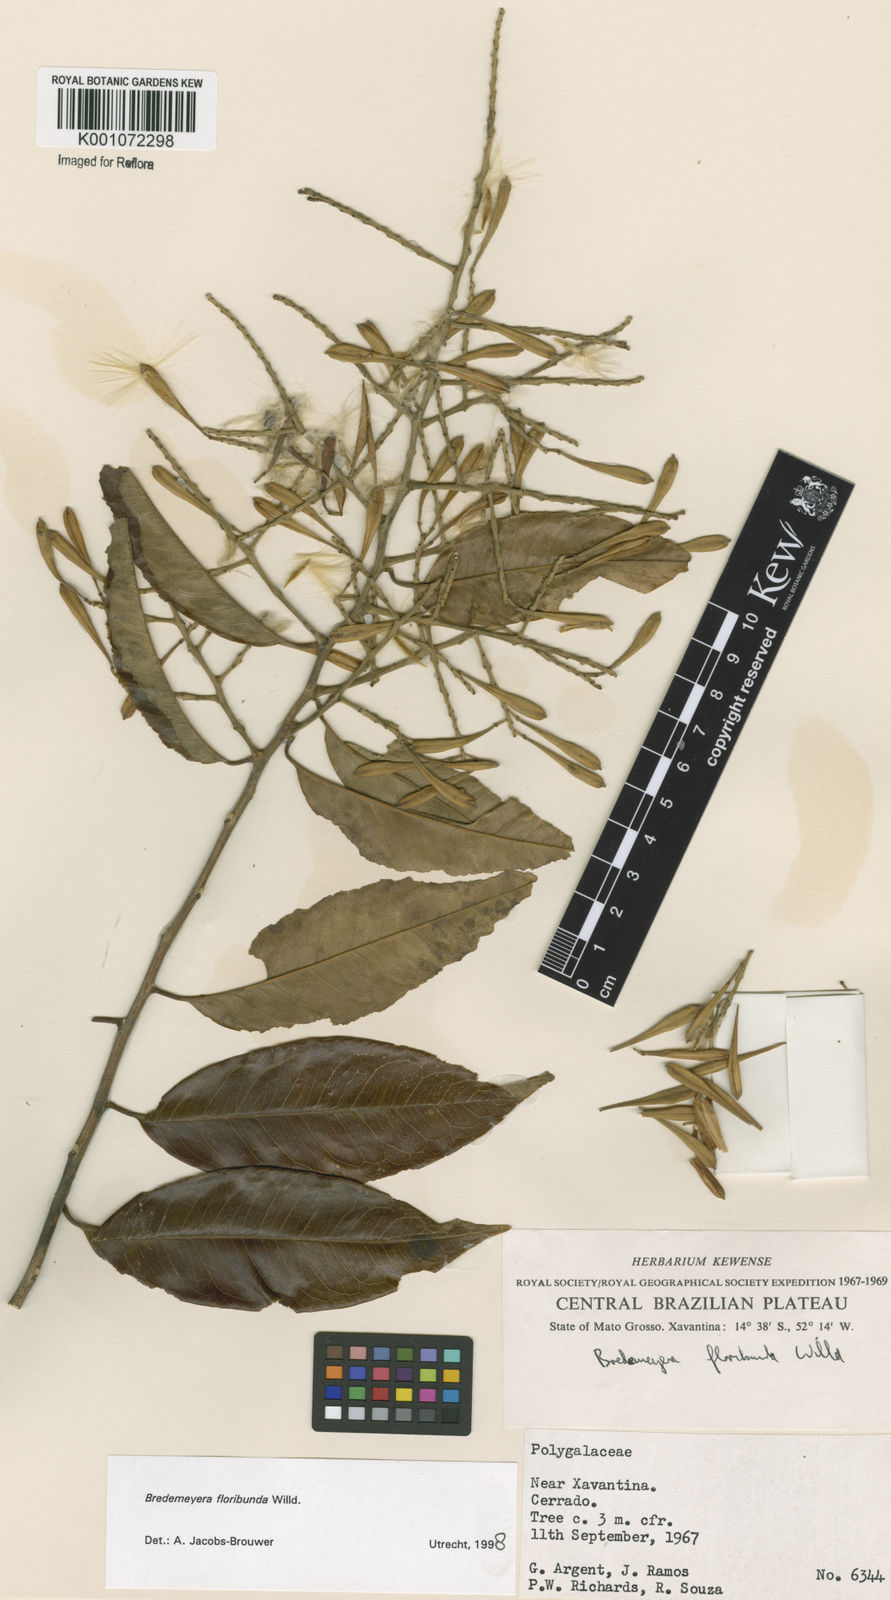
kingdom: Plantae
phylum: Tracheophyta
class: Magnoliopsida
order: Fabales
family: Polygalaceae
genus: Bredemeyera
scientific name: Bredemeyera floribunda
